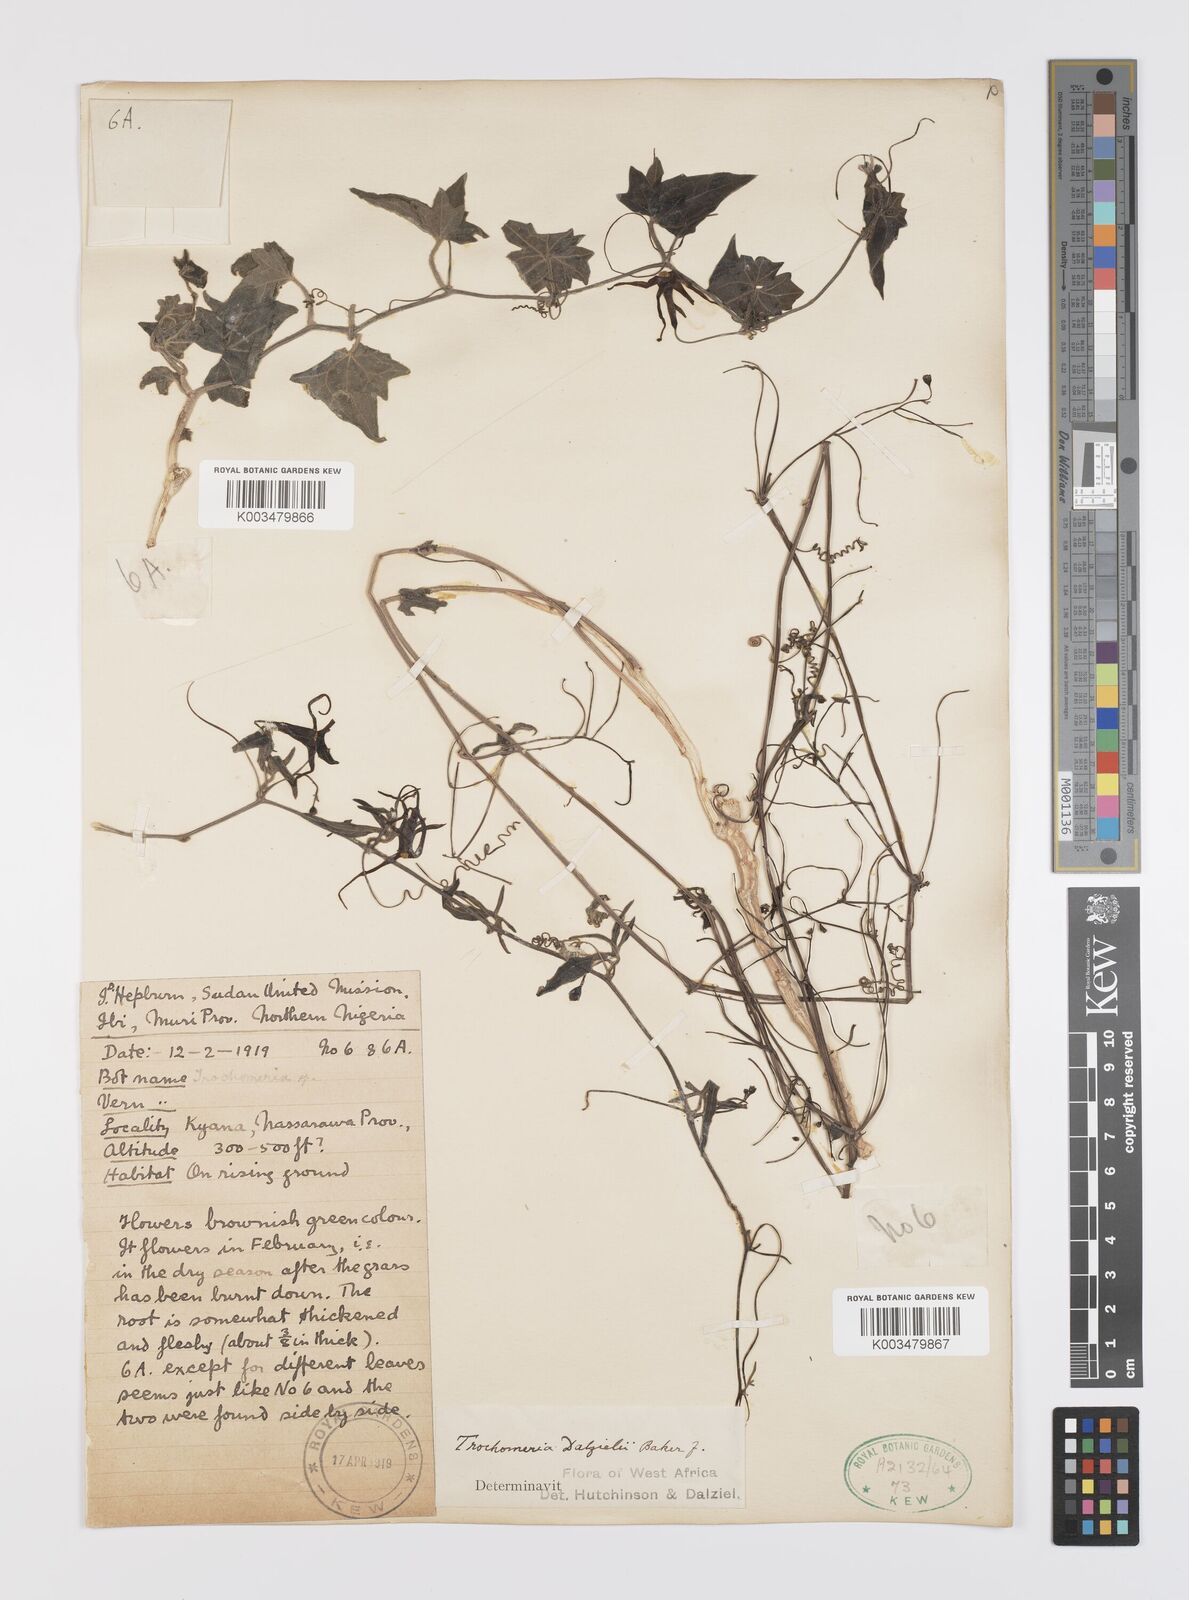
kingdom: Plantae
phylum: Tracheophyta
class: Magnoliopsida
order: Cucurbitales
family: Cucurbitaceae
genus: Trochomeria
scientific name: Trochomeria macrocarpa
